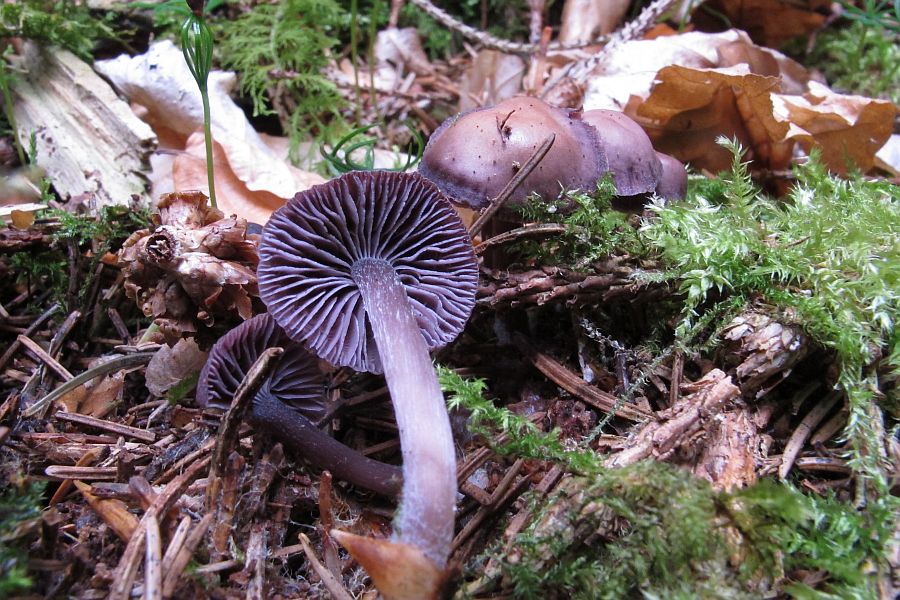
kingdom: Fungi
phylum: Basidiomycota
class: Agaricomycetes
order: Agaricales
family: Mycenaceae
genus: Mycena
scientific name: Mycena pearsoniana
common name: lillabrun huesvamp
